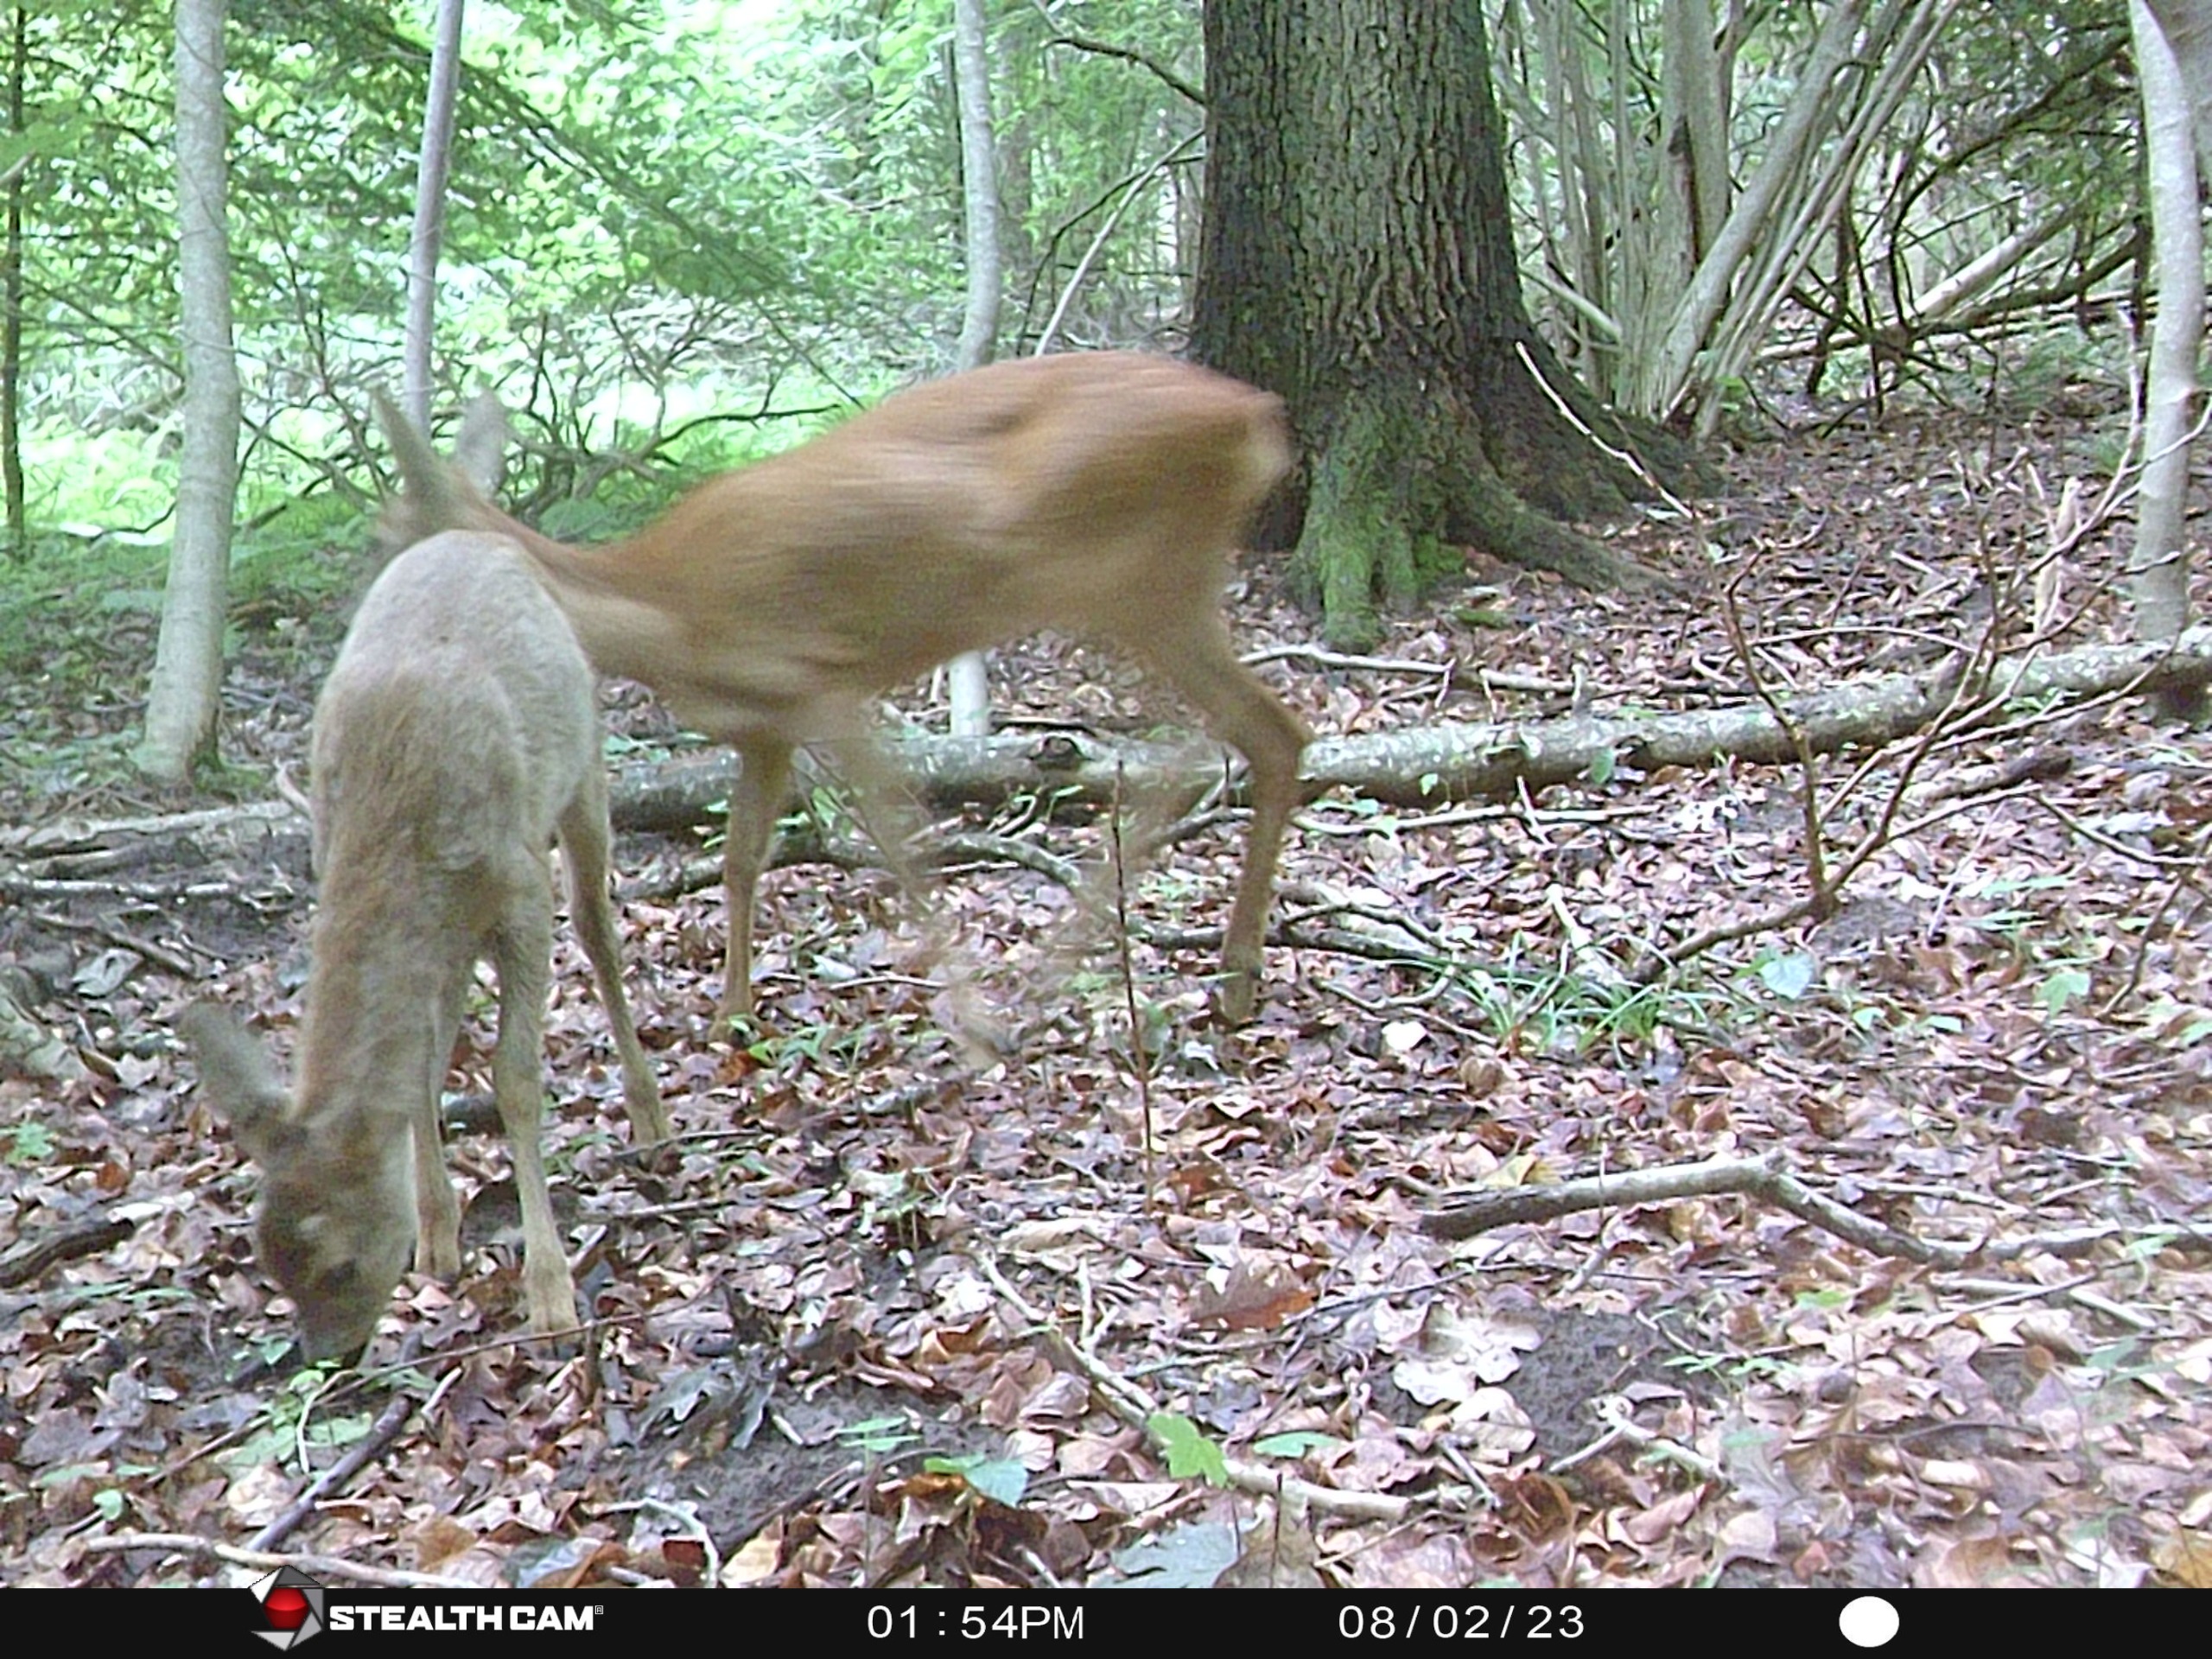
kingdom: Animalia
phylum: Chordata
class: Mammalia
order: Artiodactyla
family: Cervidae
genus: Capreolus
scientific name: Capreolus capreolus
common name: Rådyr
